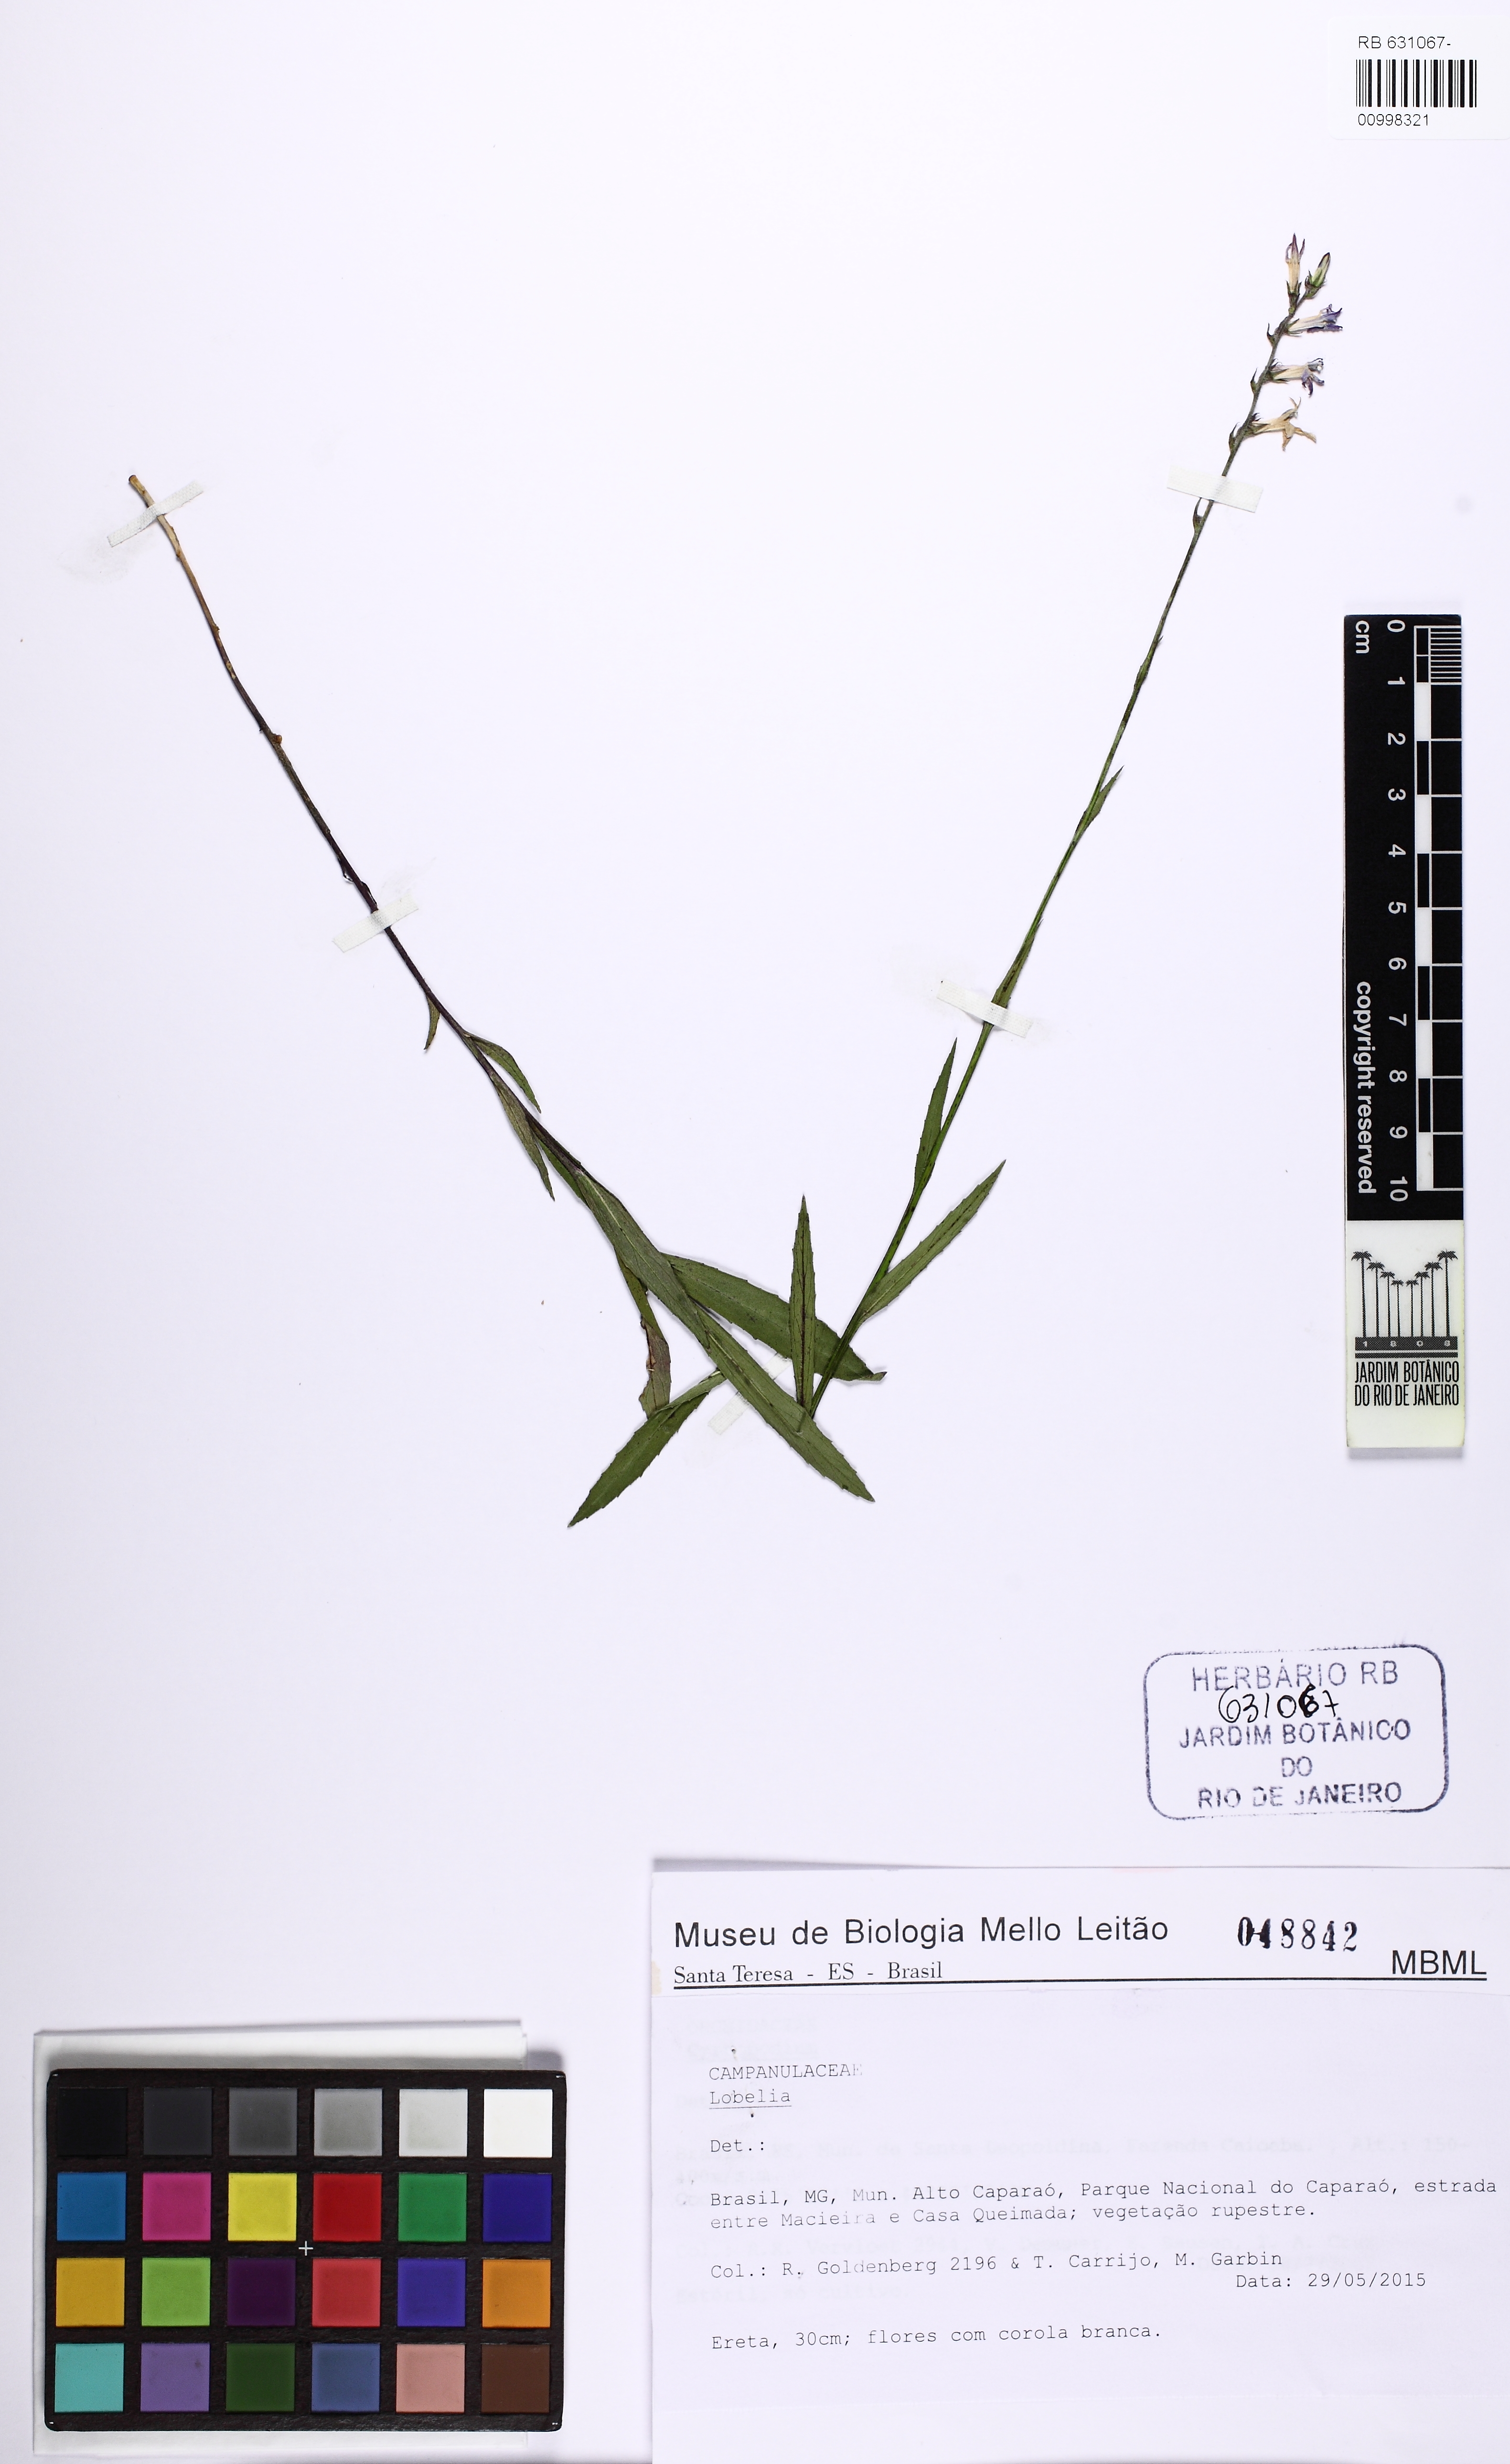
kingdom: Plantae
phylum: Tracheophyta
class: Magnoliopsida
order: Asterales
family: Campanulaceae
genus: Lobelia
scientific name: Lobelia camporum
